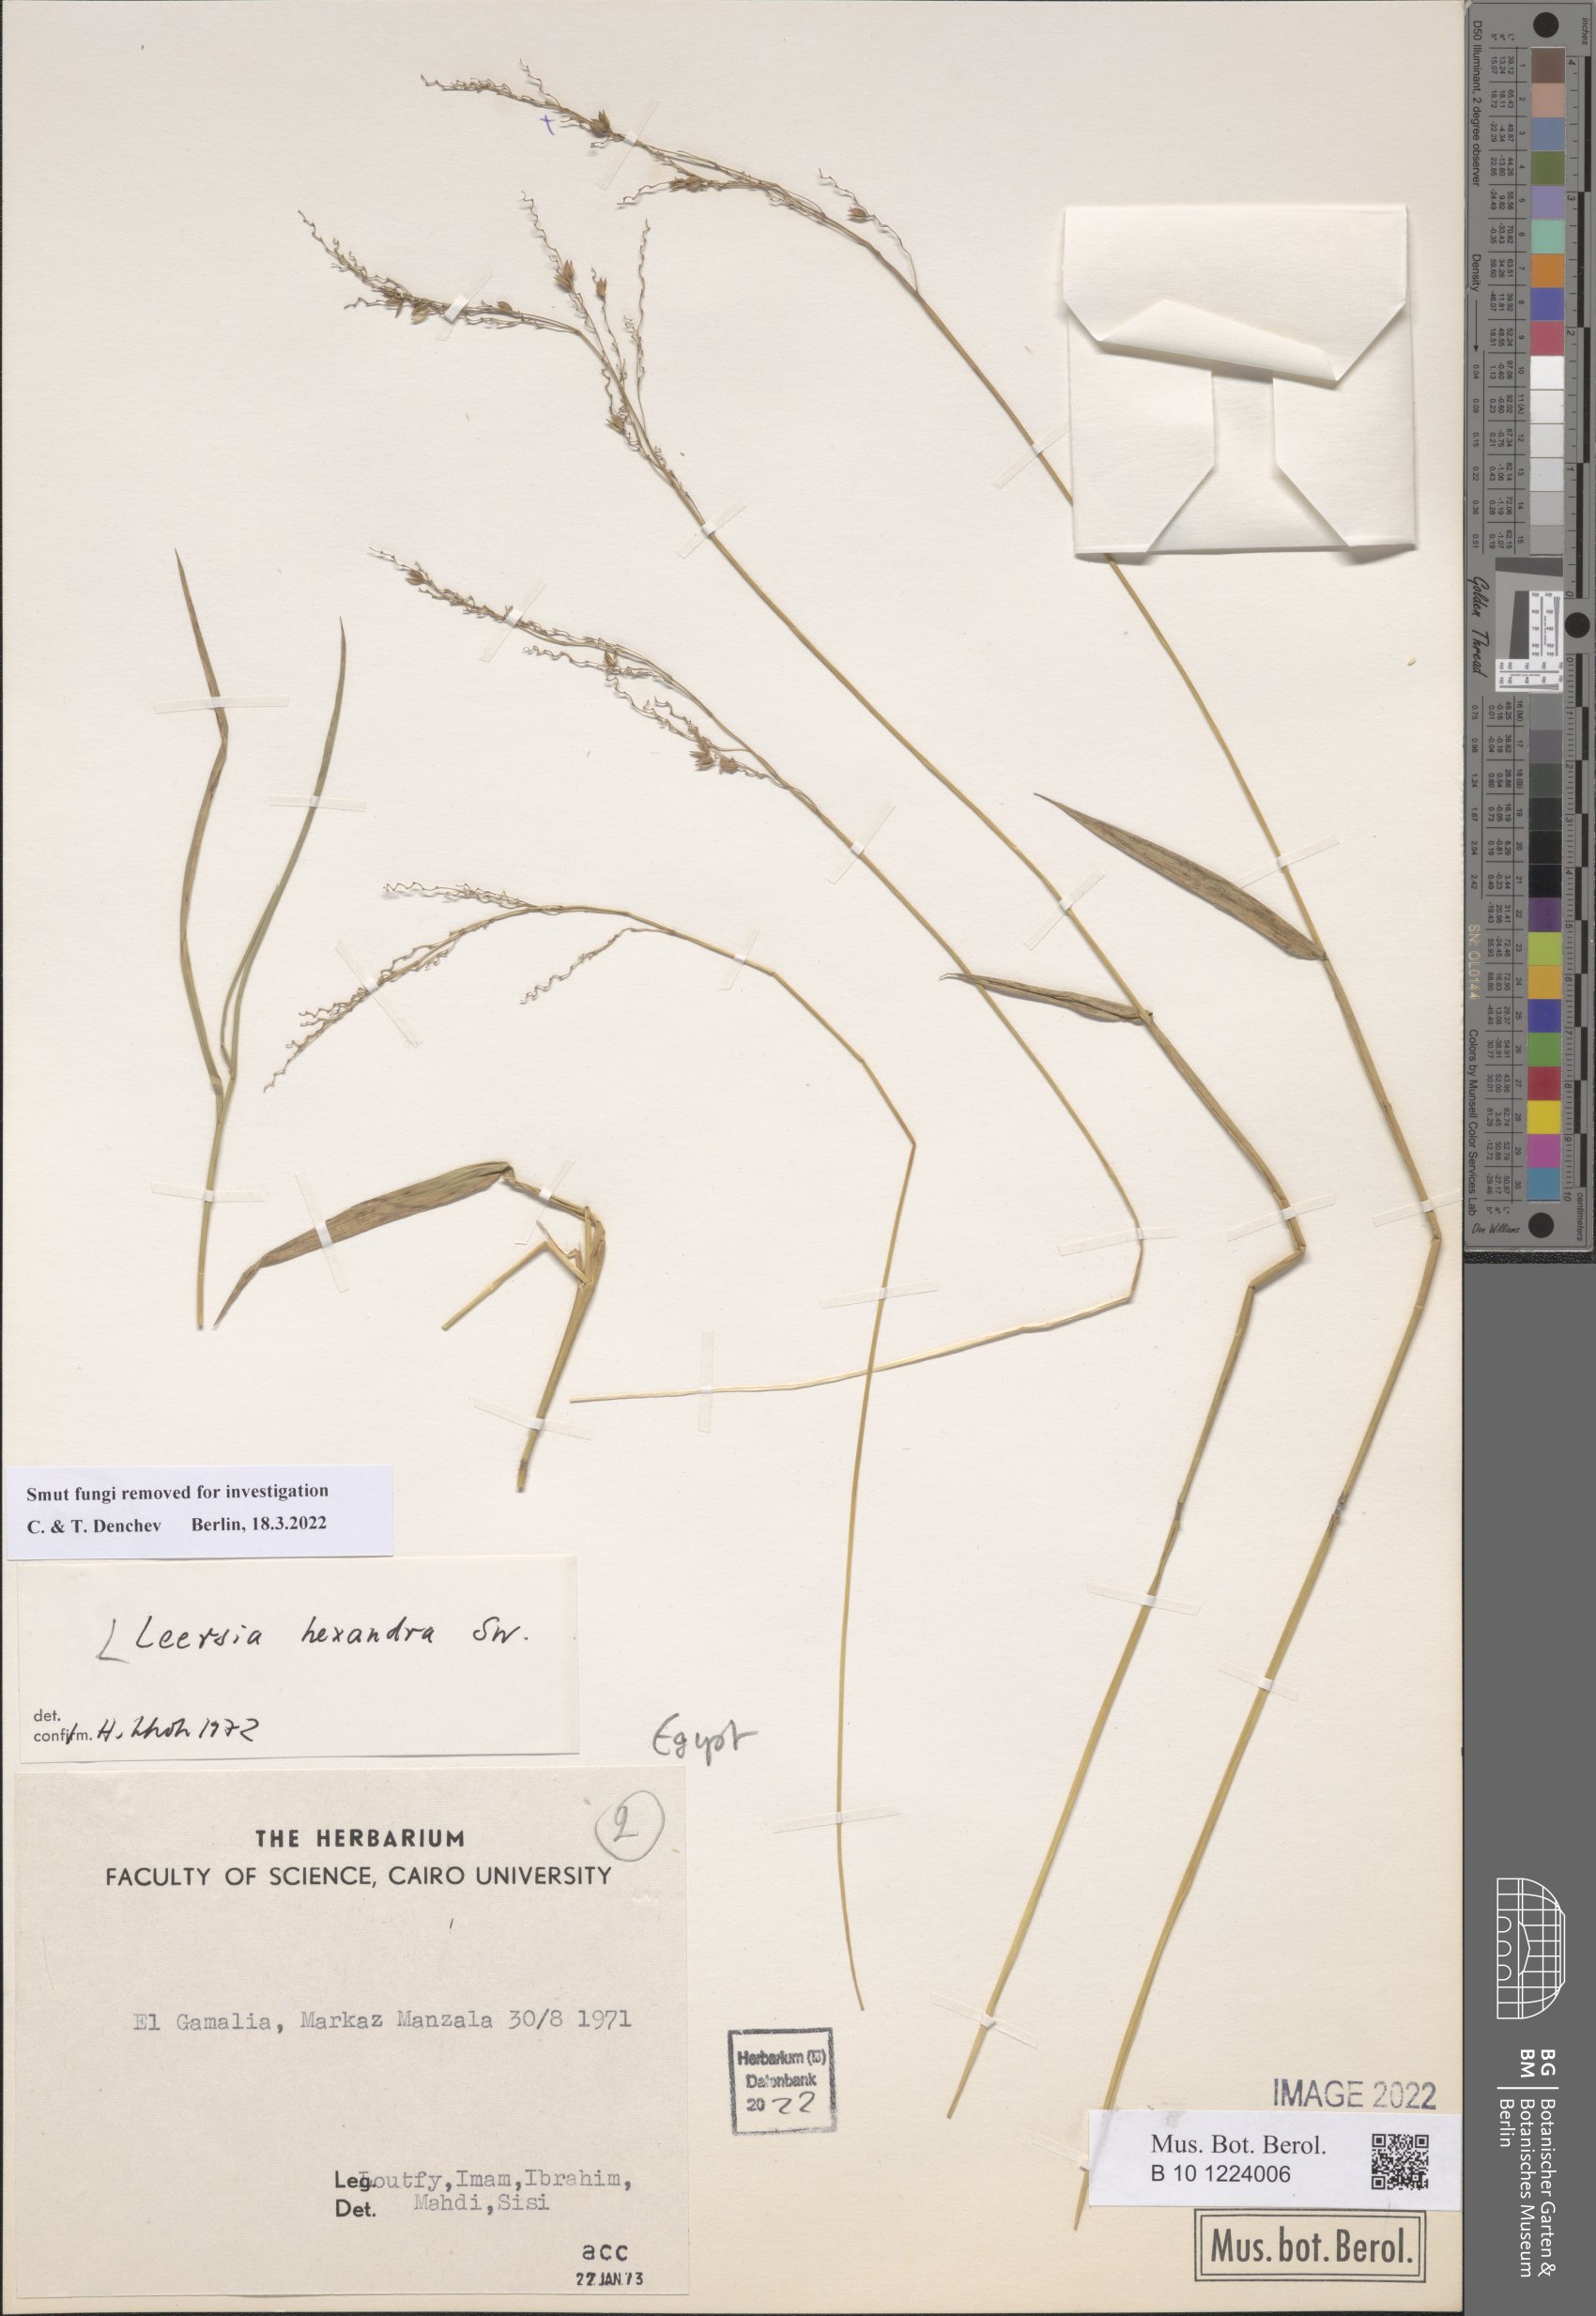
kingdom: Plantae
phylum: Tracheophyta
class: Liliopsida
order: Poales
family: Poaceae
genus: Leersia
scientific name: Leersia hexandra
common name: Southern cut grass
